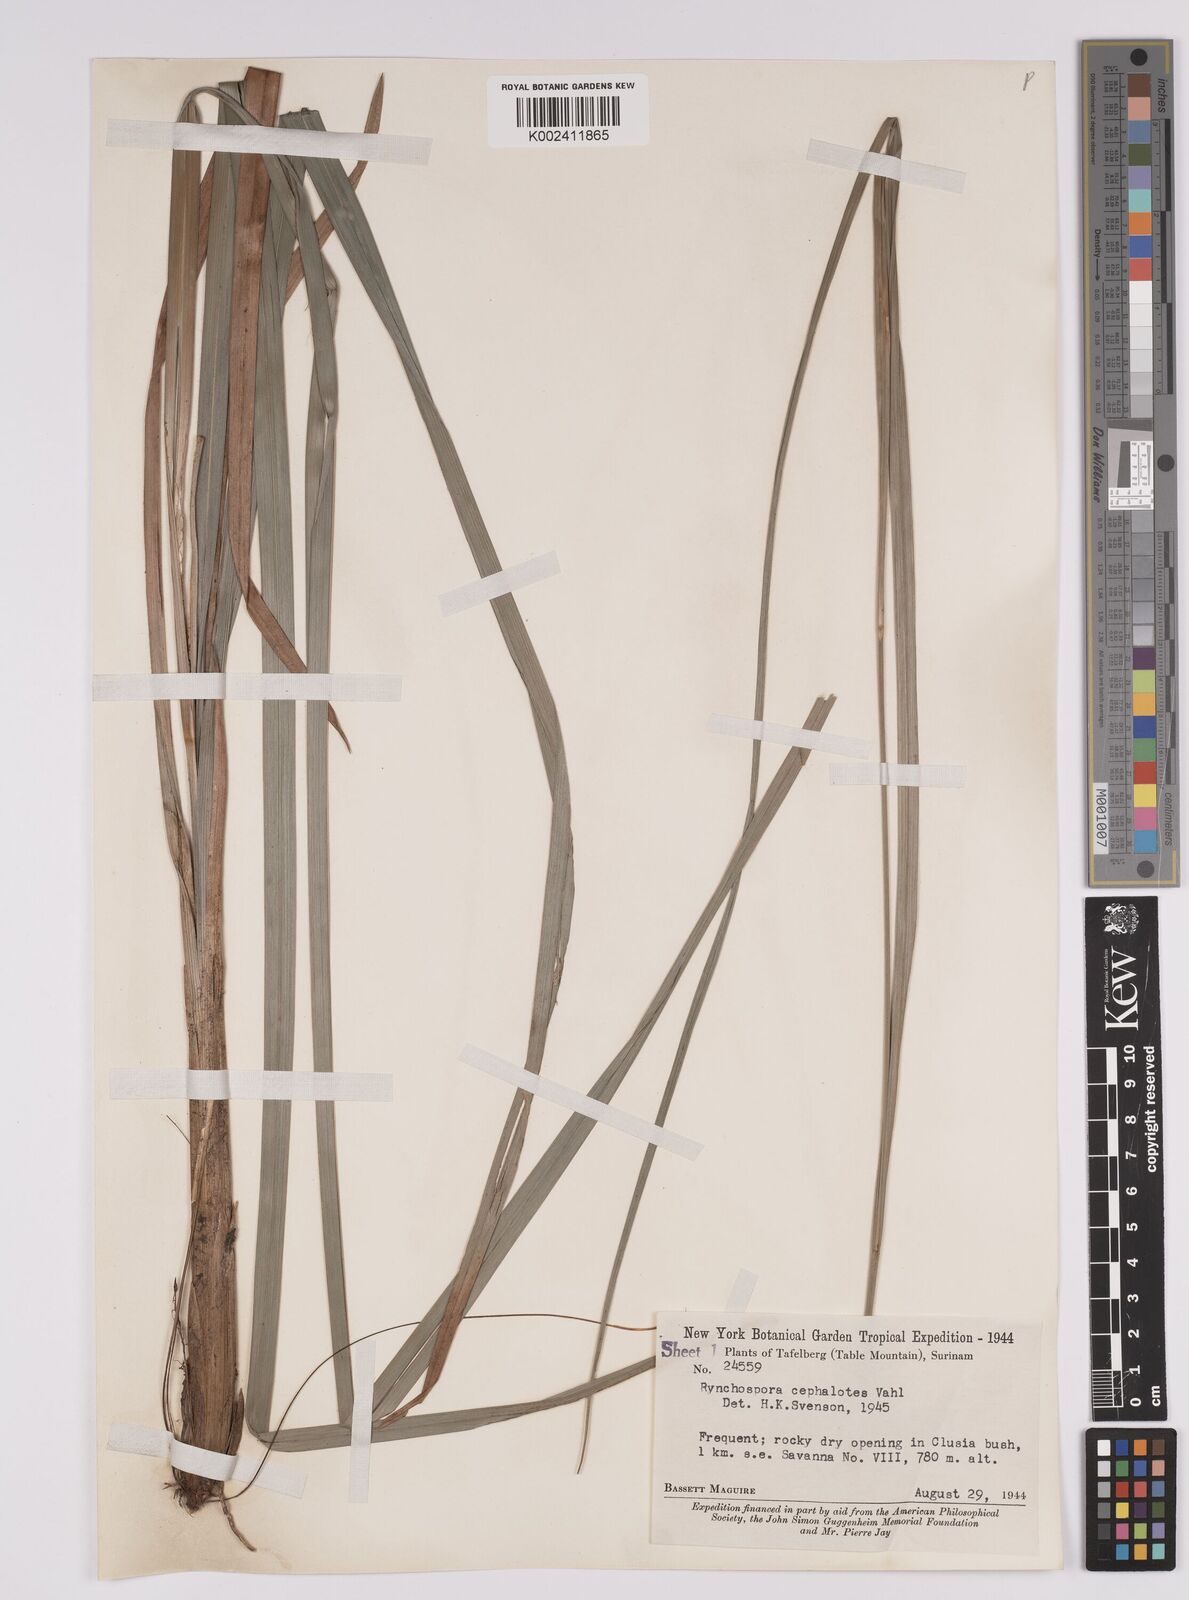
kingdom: Plantae
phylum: Tracheophyta
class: Liliopsida
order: Poales
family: Cyperaceae
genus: Rhynchospora
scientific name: Rhynchospora cephalotes
